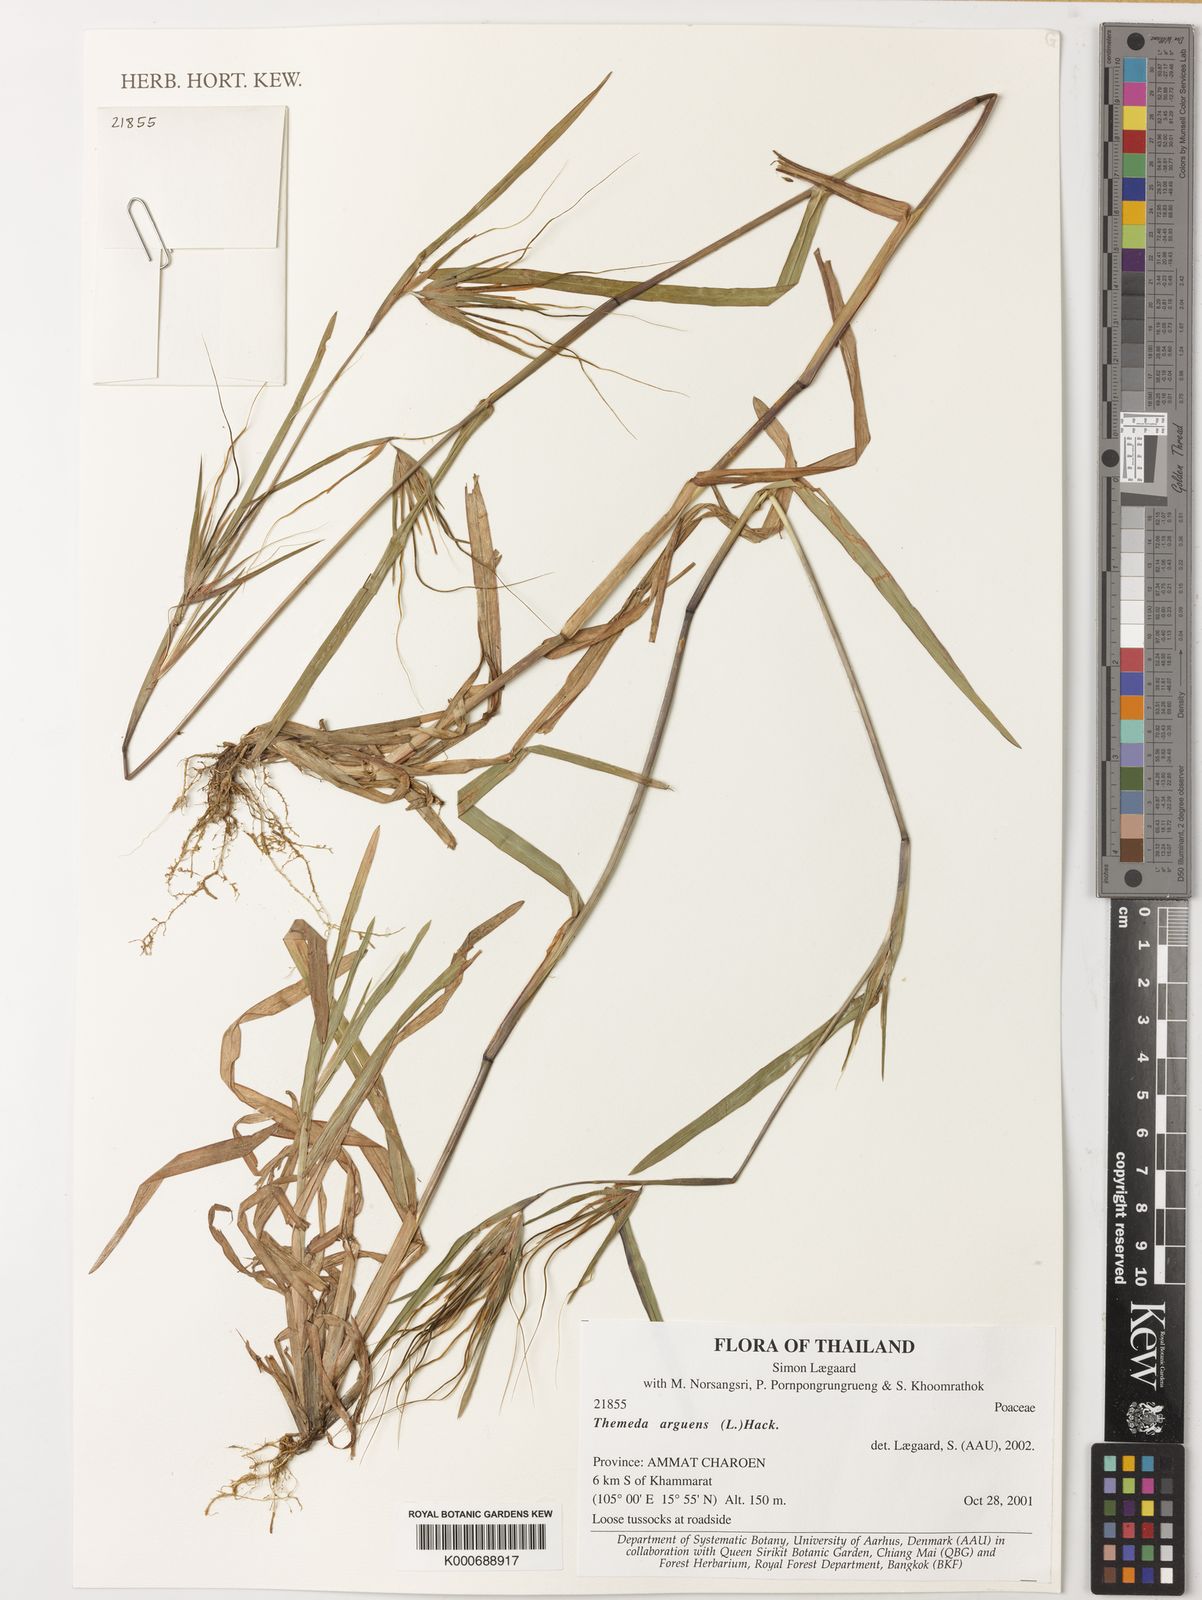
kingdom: Plantae
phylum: Tracheophyta
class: Liliopsida
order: Poales
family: Poaceae
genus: Themeda
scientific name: Themeda arguens
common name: Christmas grass
